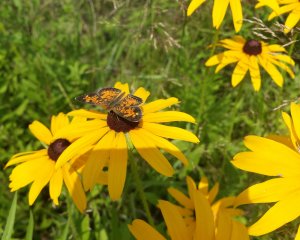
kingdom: Animalia
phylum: Arthropoda
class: Insecta
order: Lepidoptera
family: Nymphalidae
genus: Phyciodes
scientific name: Phyciodes tharos
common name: Northern Crescent
